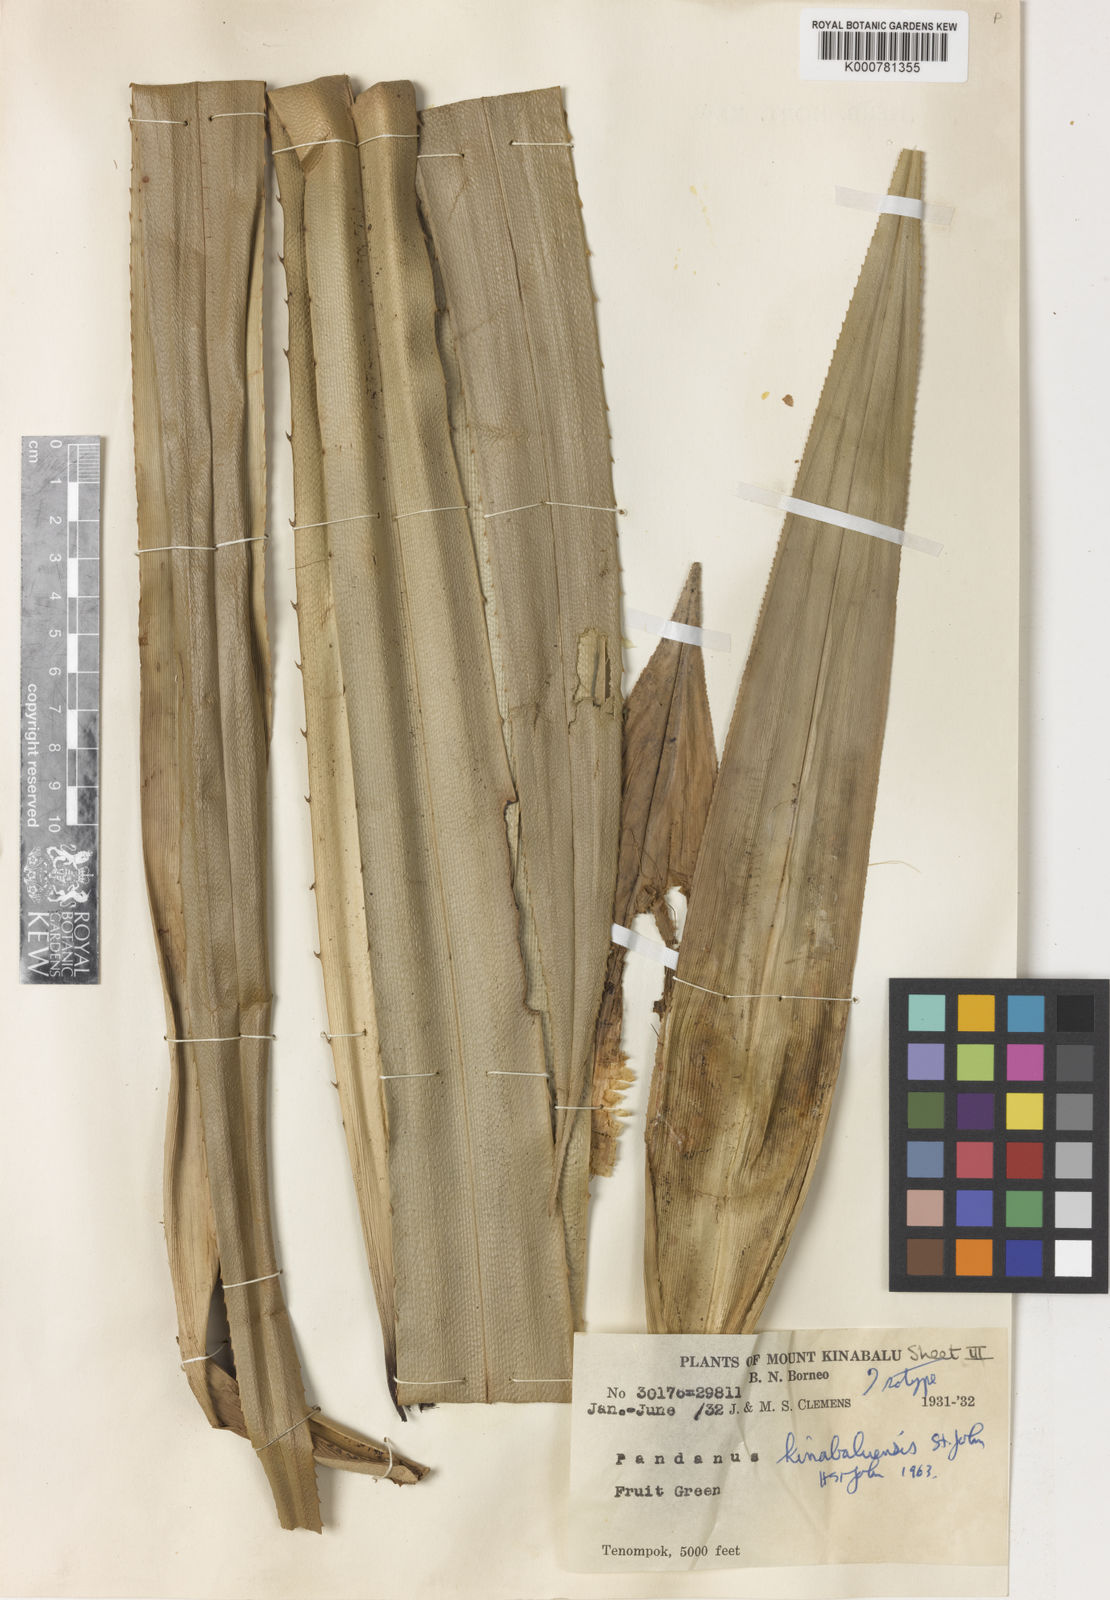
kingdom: Plantae
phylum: Tracheophyta
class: Liliopsida
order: Pandanales
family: Pandanaceae
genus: Pandanus
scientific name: Pandanus kinabaluensis
